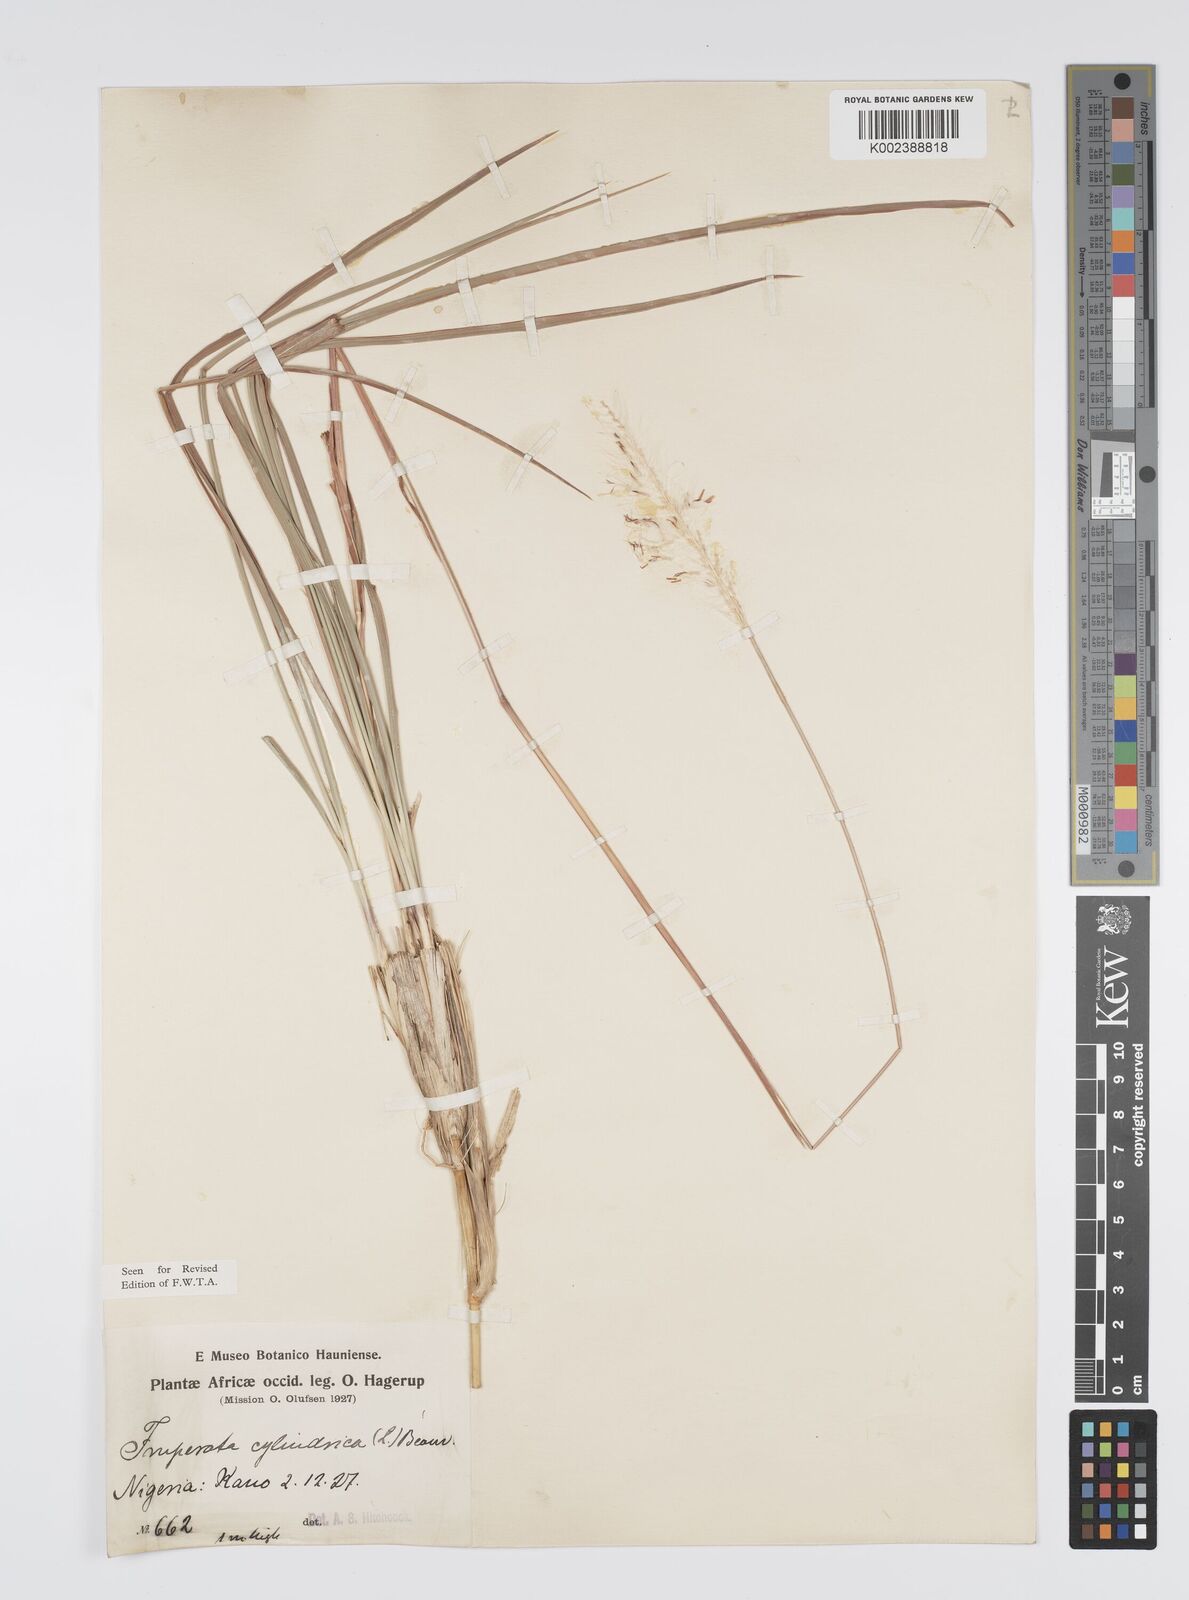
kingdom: Plantae
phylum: Tracheophyta
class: Liliopsida
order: Poales
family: Poaceae
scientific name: Poaceae
